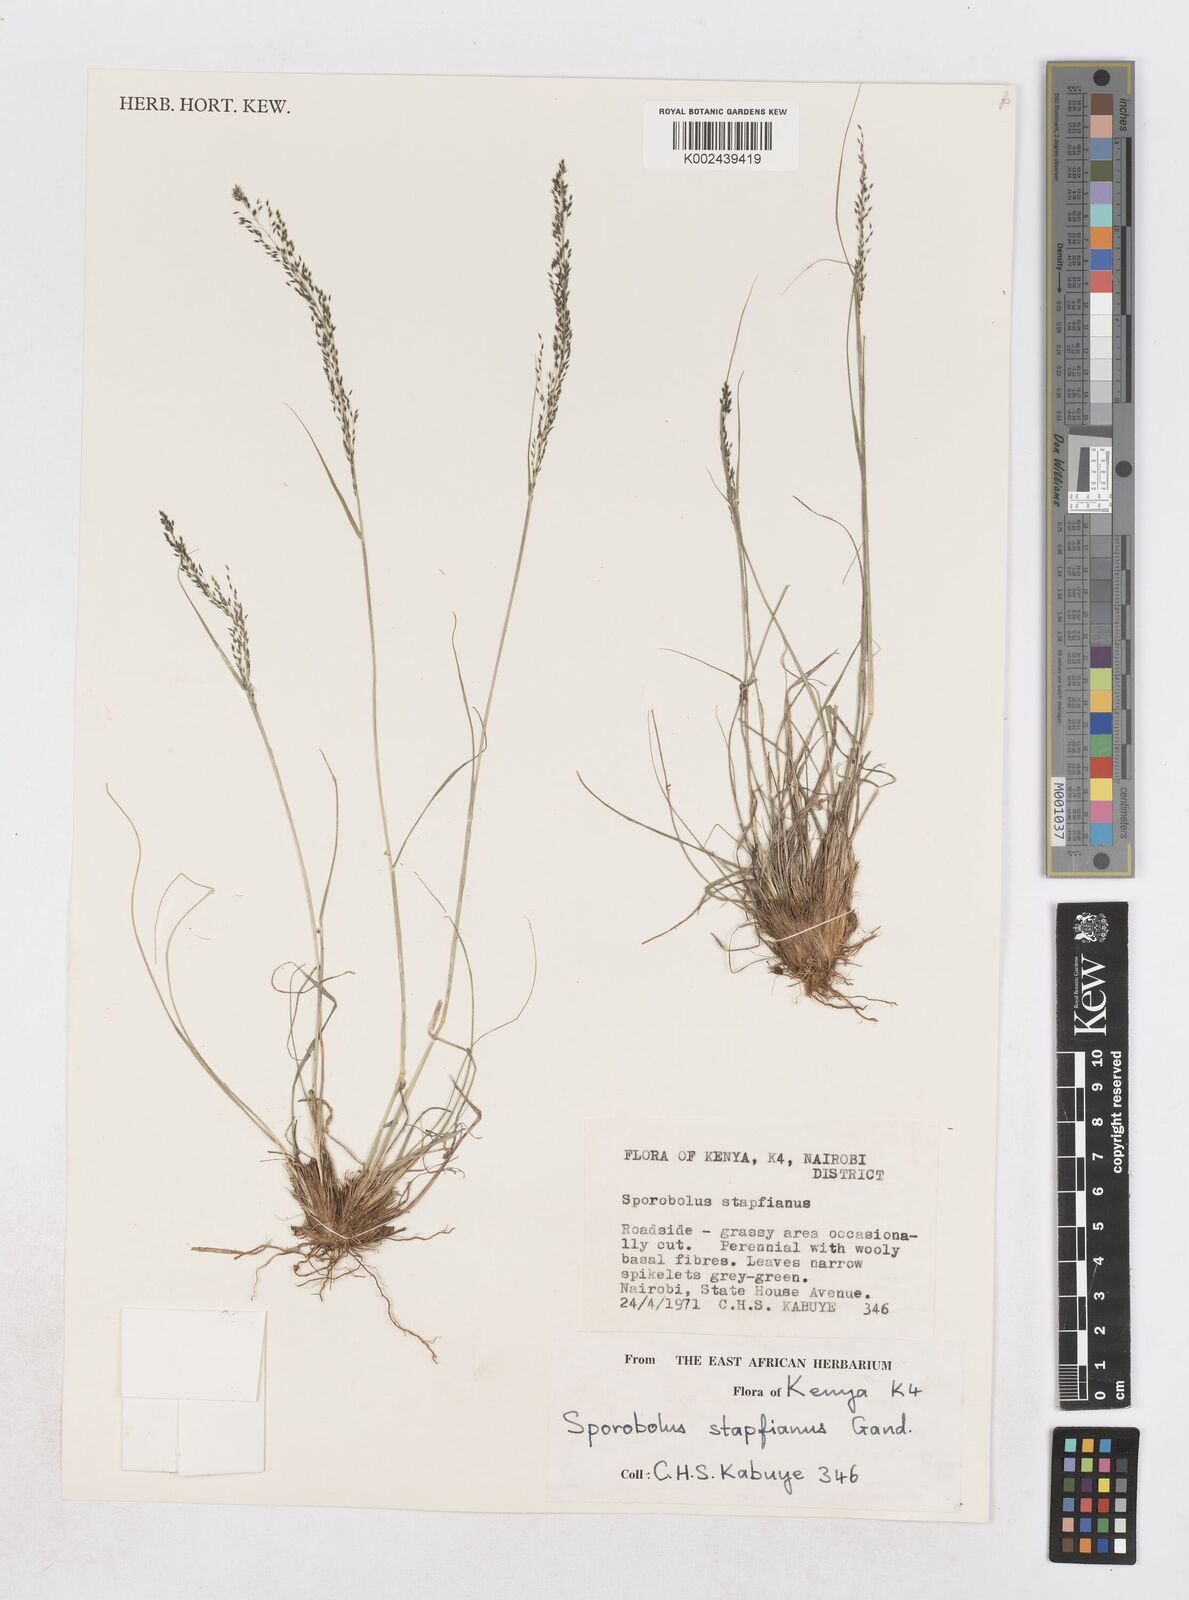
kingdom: Plantae
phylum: Tracheophyta
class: Liliopsida
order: Poales
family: Poaceae
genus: Sporobolus
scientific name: Sporobolus stapfianus
